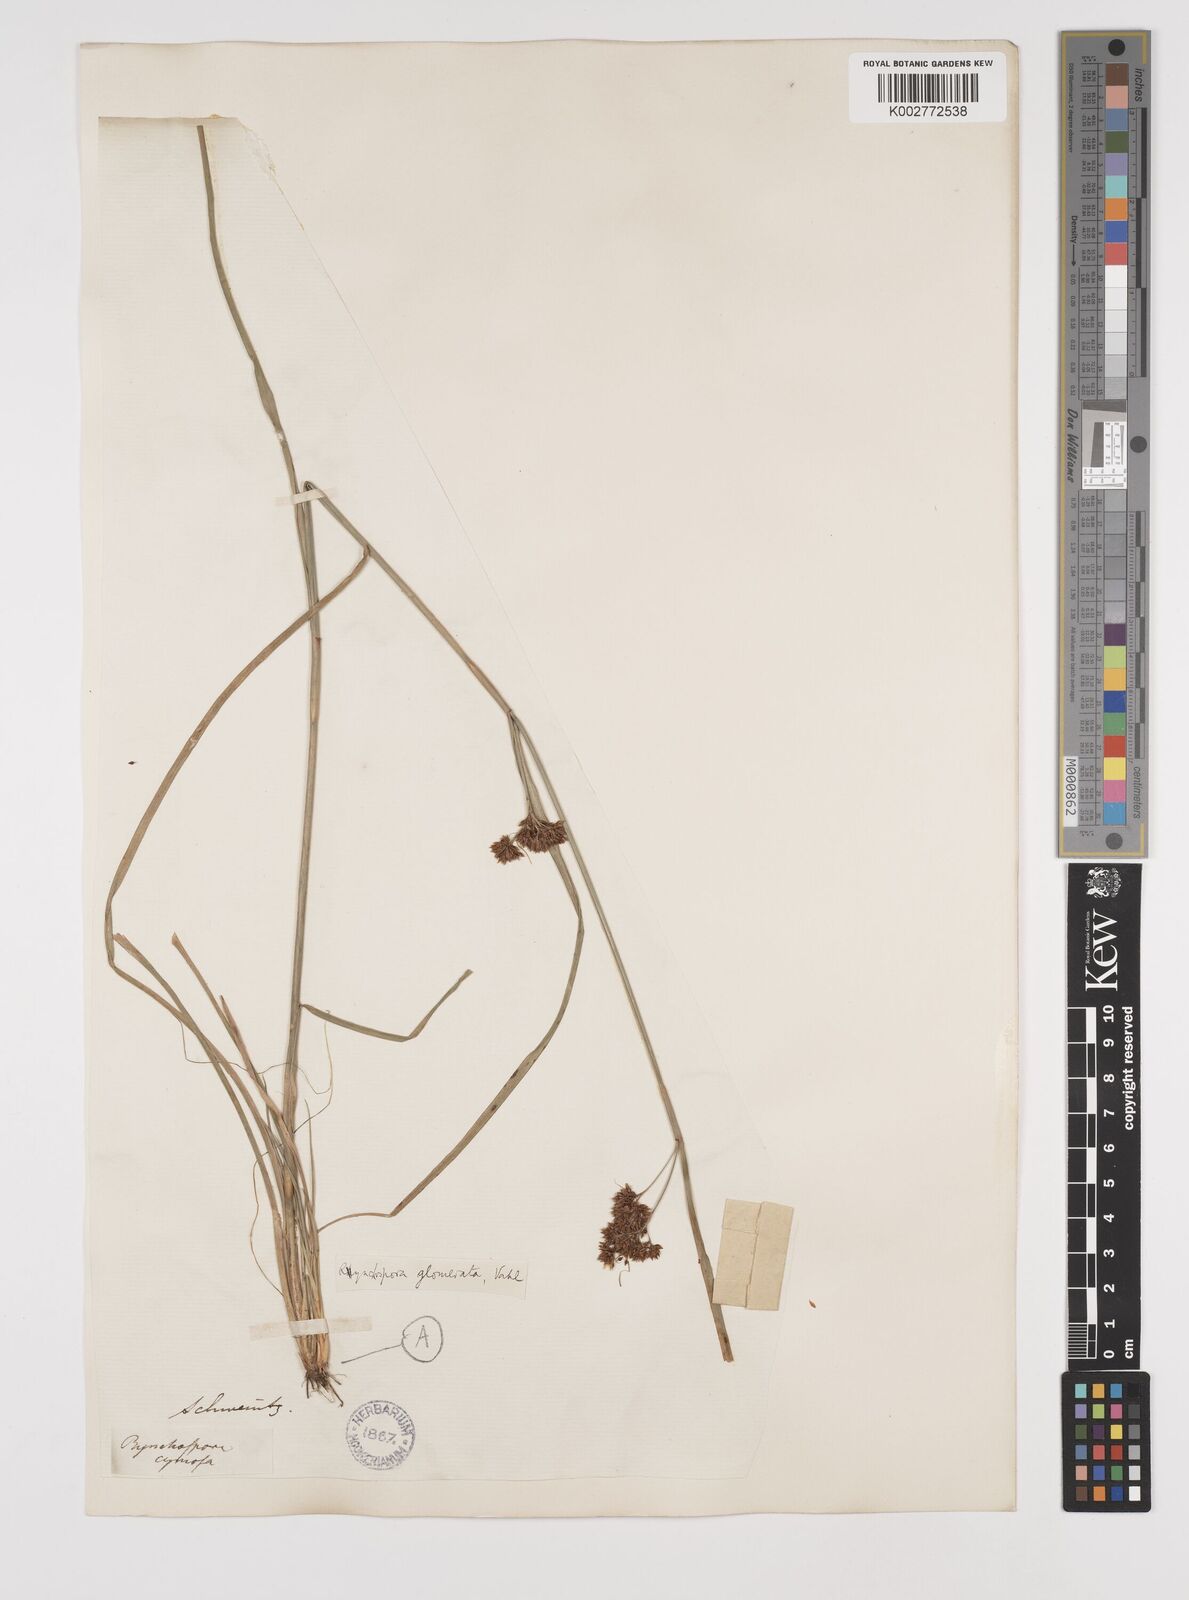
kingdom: Plantae
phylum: Tracheophyta
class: Liliopsida
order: Poales
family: Cyperaceae
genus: Rhynchospora
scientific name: Rhynchospora glomerata
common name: Cluster beak sedge
